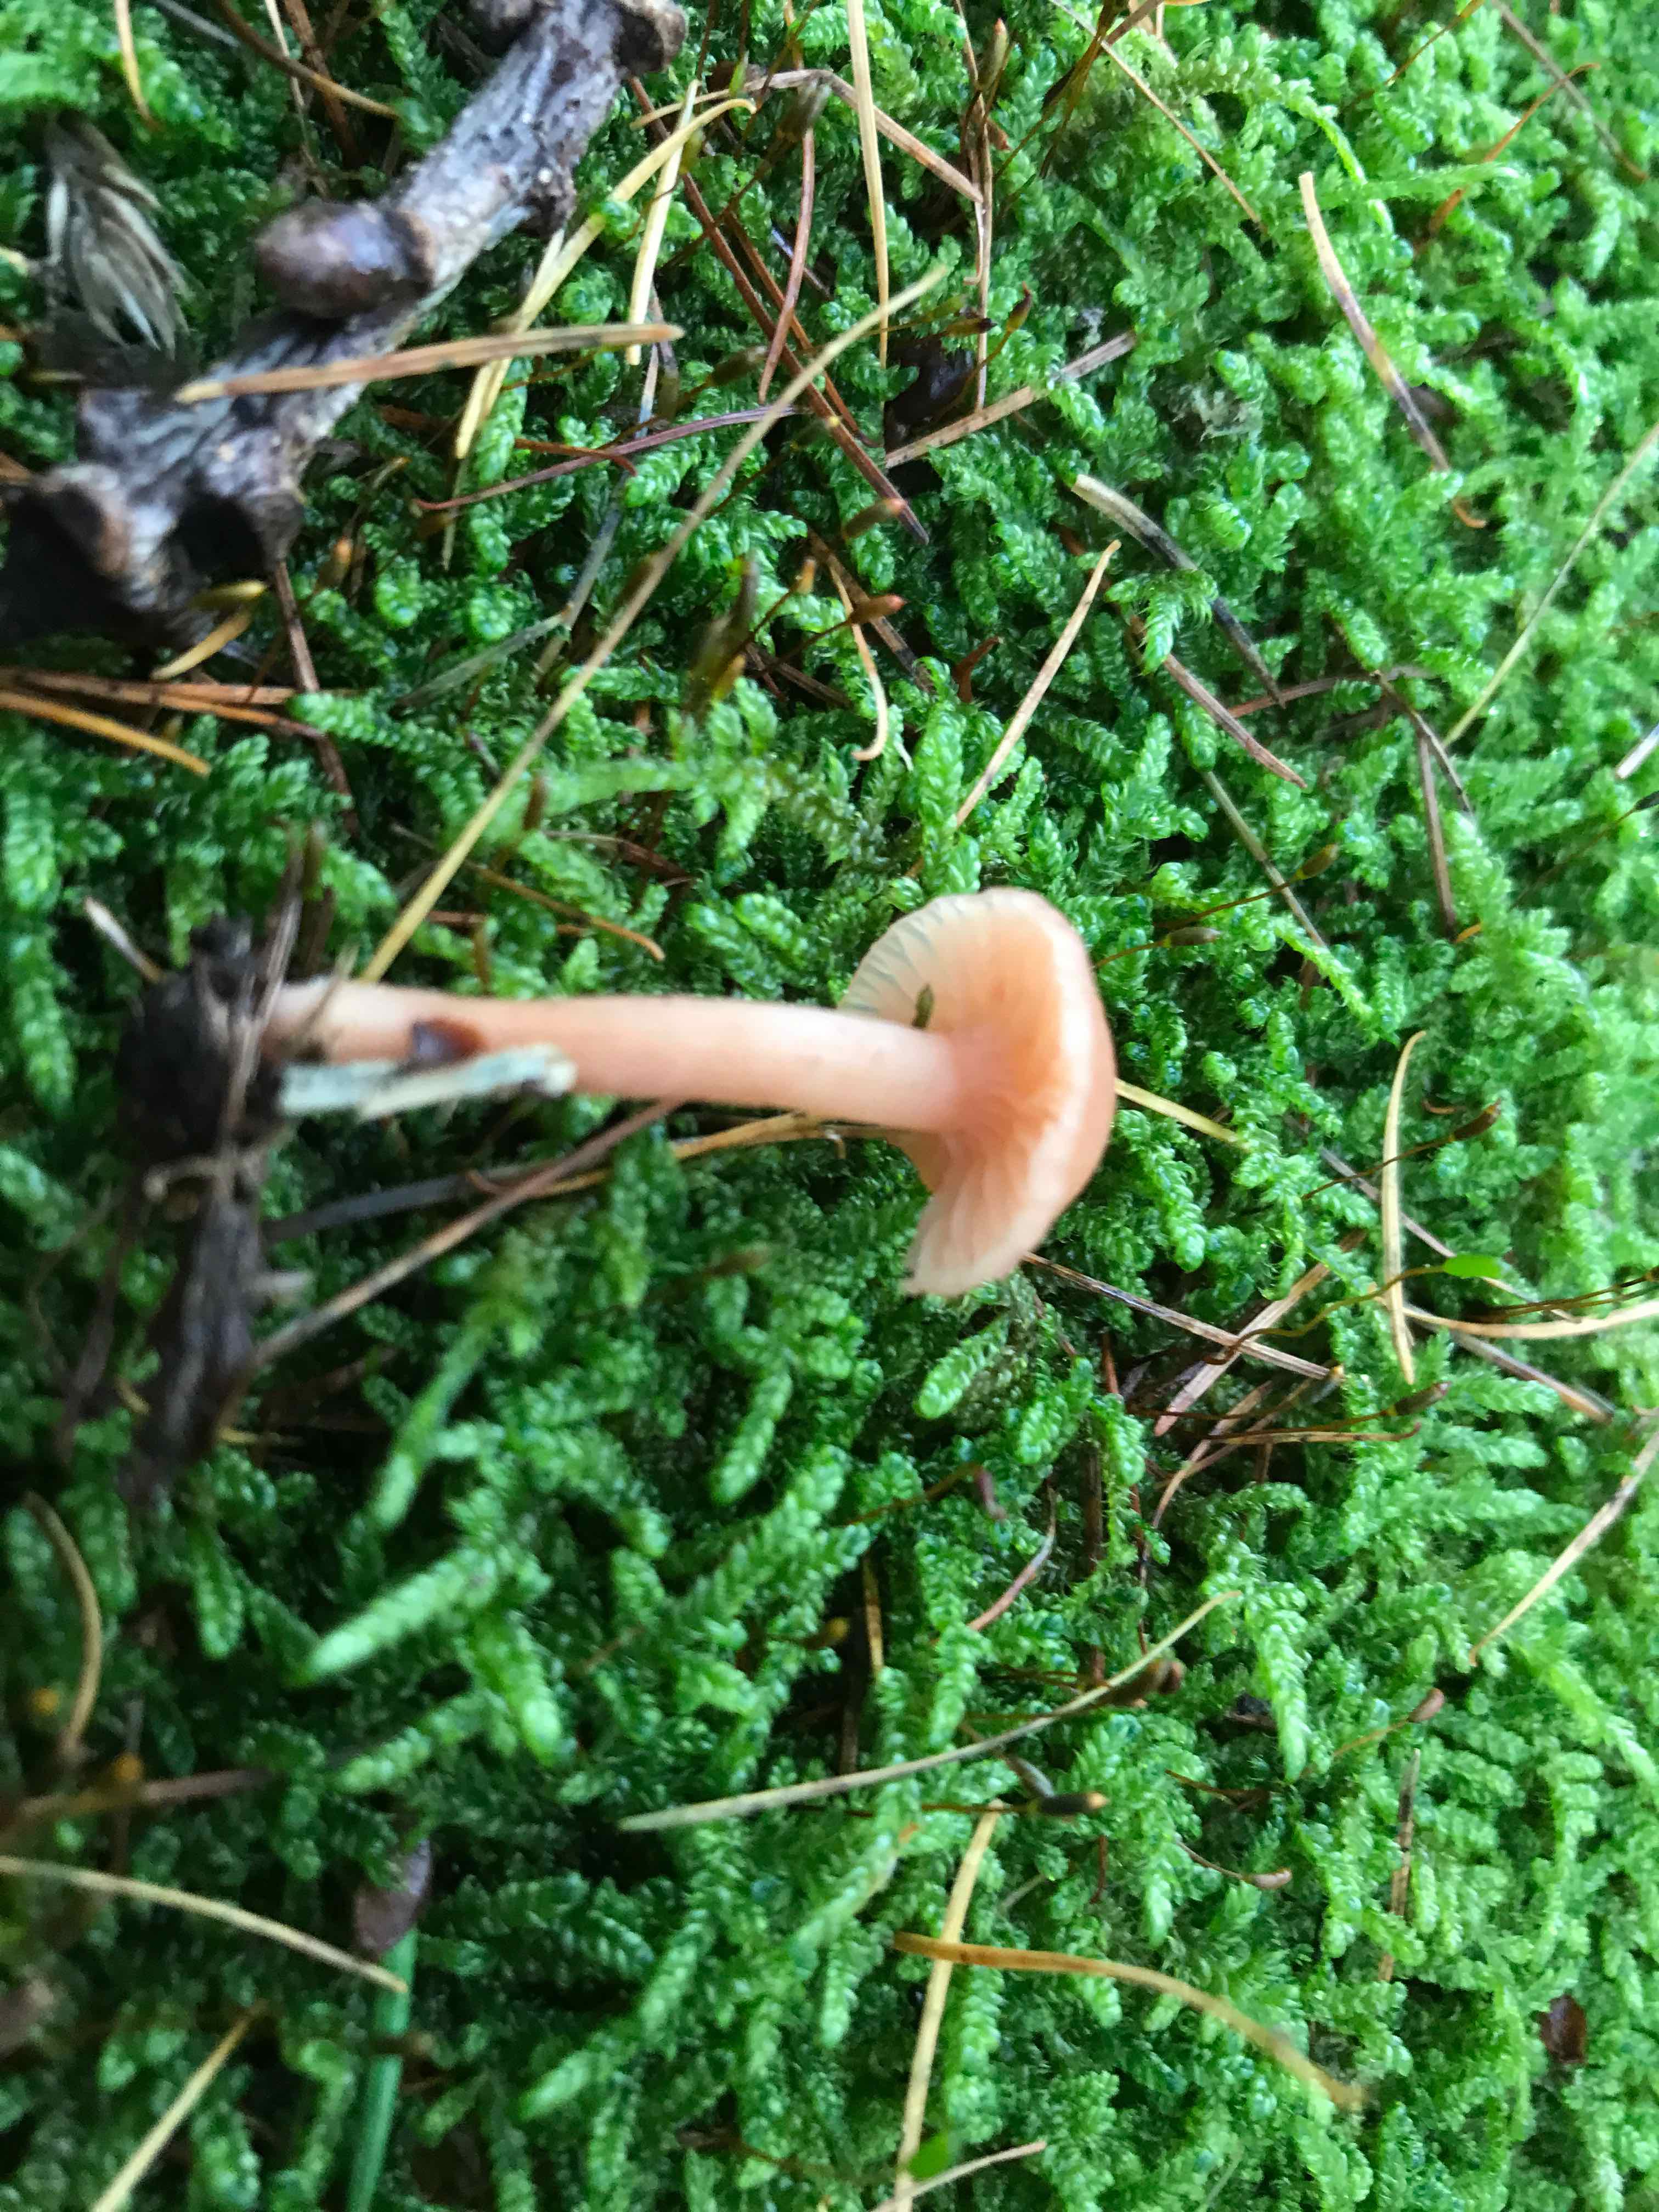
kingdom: Fungi
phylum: Basidiomycota
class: Agaricomycetes
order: Agaricales
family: Hydnangiaceae
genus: Laccaria
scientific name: Laccaria laccata
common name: rød ametysthat
